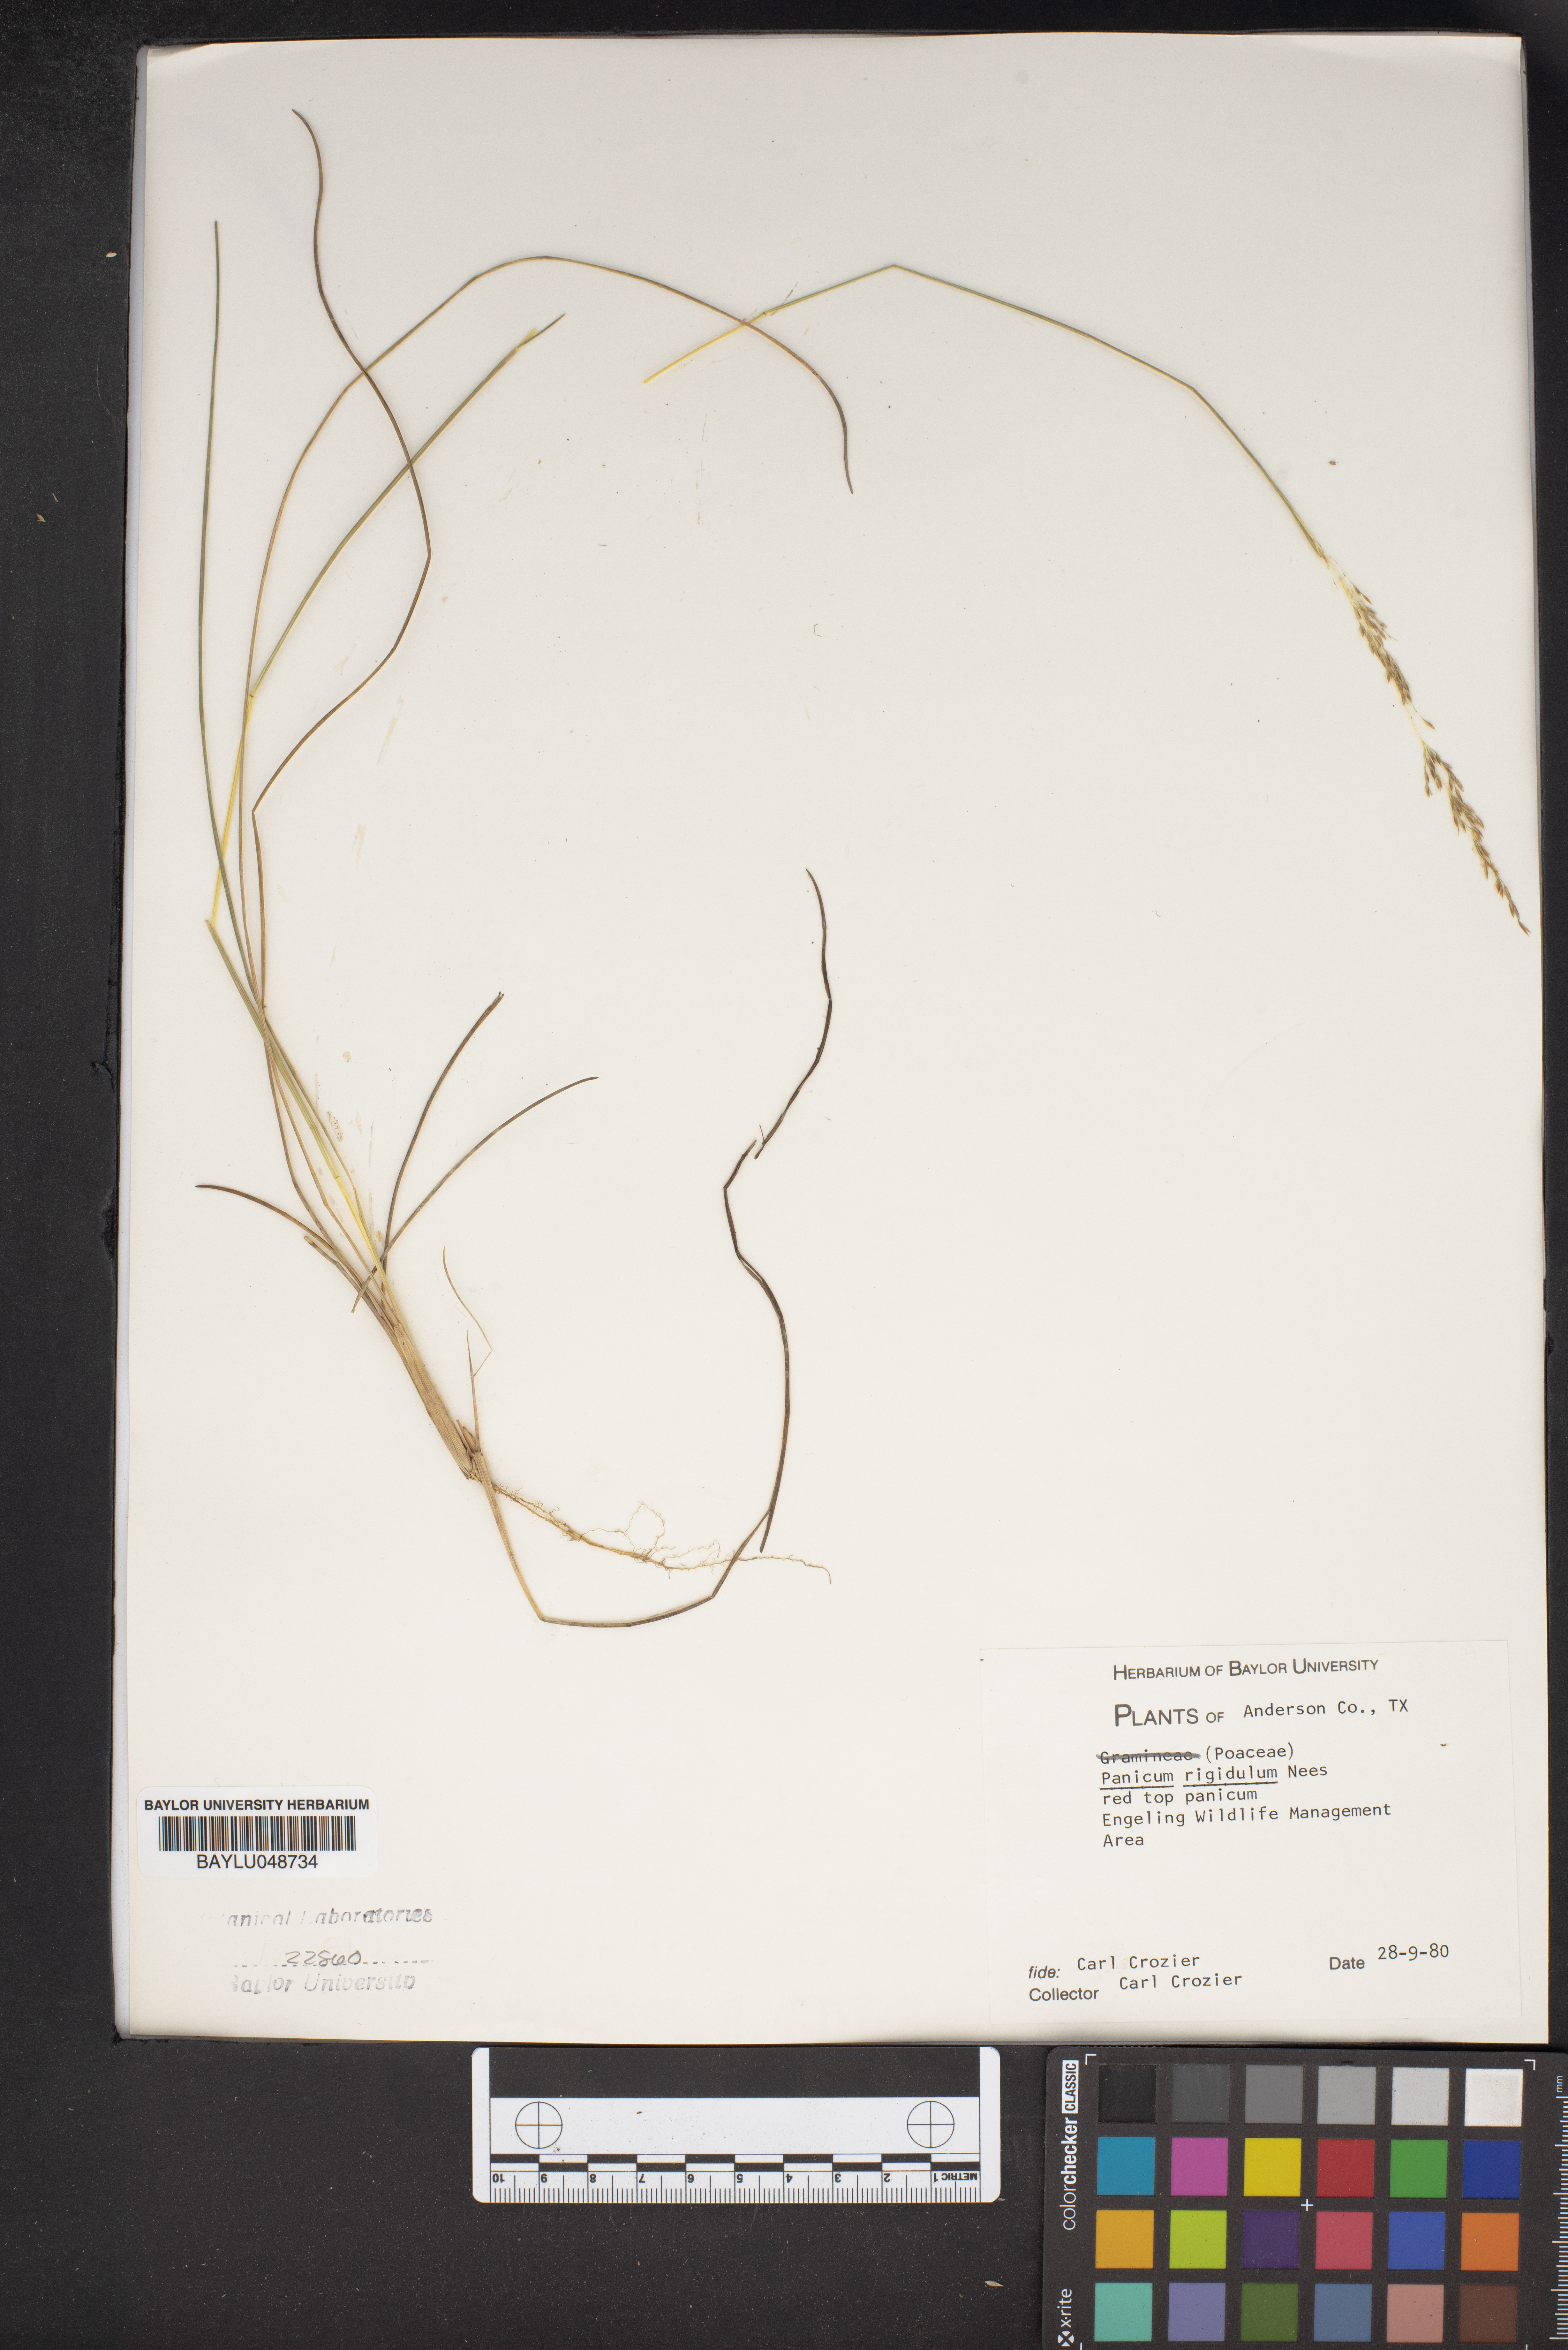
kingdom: Plantae
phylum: Tracheophyta
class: Liliopsida
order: Poales
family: Poaceae
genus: Coleataenia
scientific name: Coleataenia rigidula
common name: Redtop panicgrass
